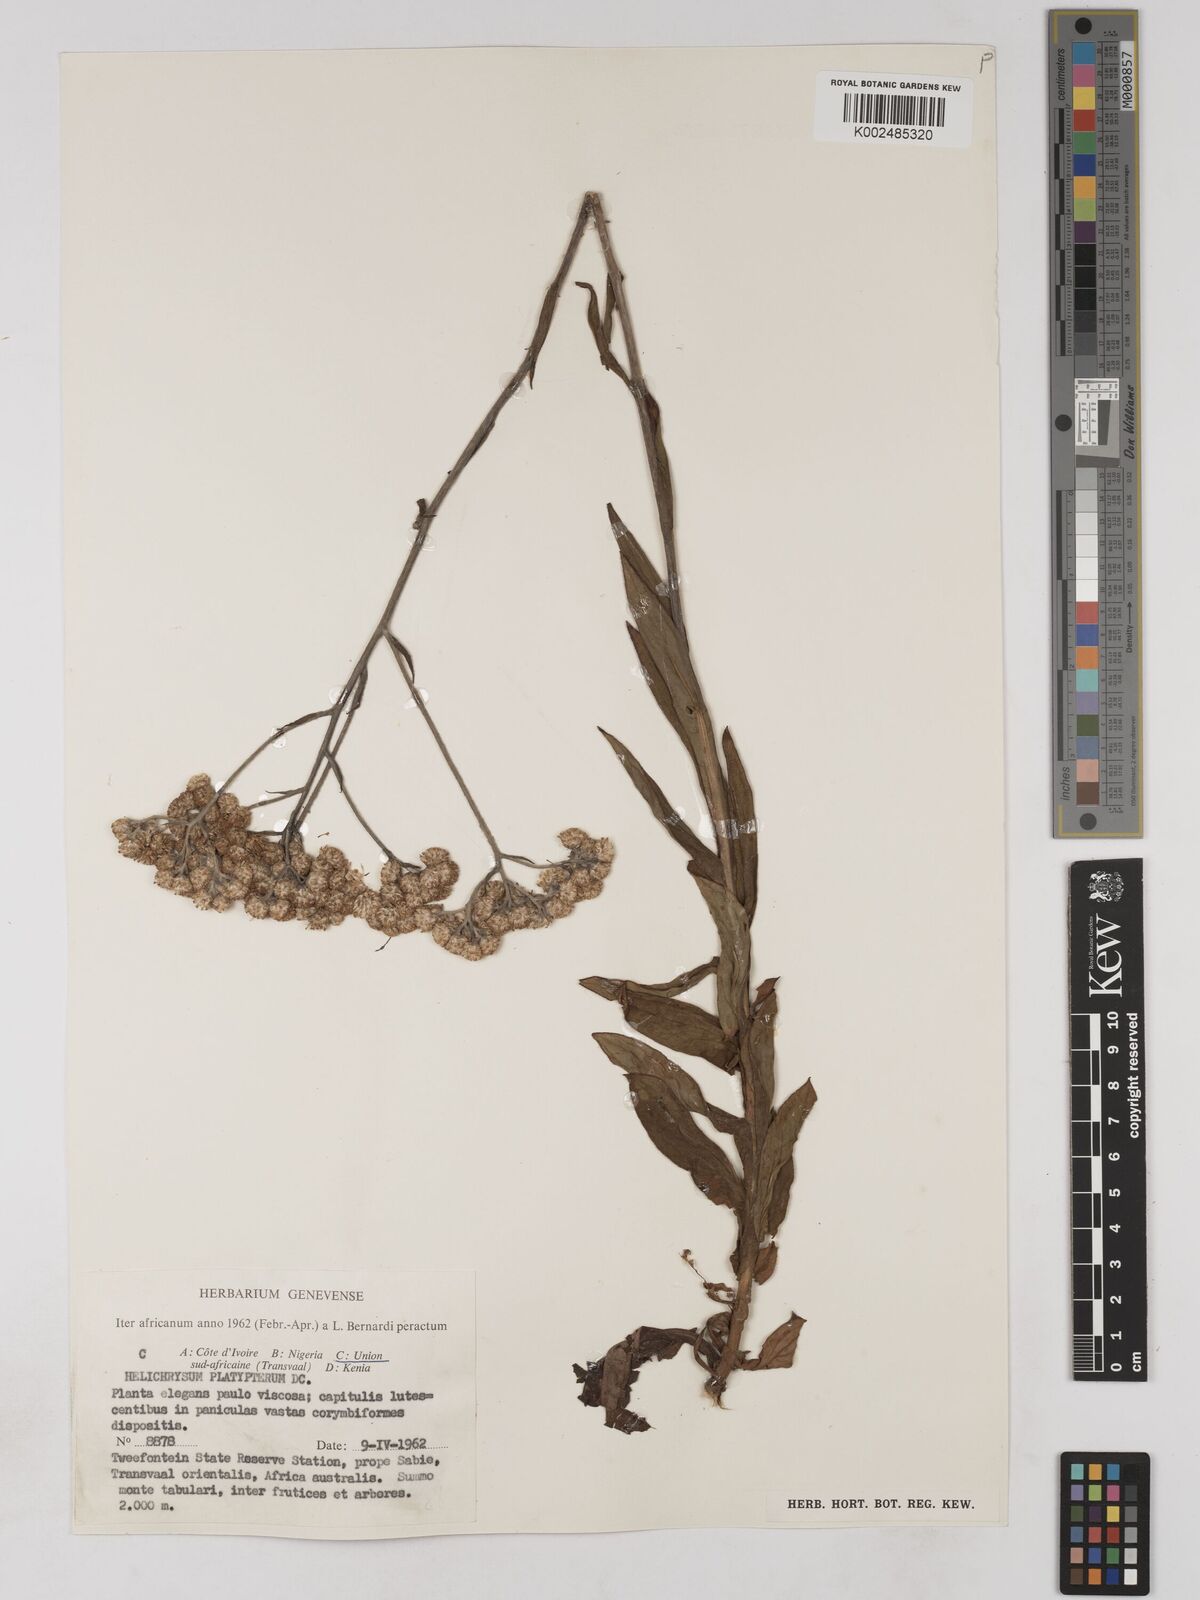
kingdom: Plantae
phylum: Tracheophyta
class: Magnoliopsida
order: Asterales
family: Asteraceae
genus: Helichrysum
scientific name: Helichrysum platypterum
